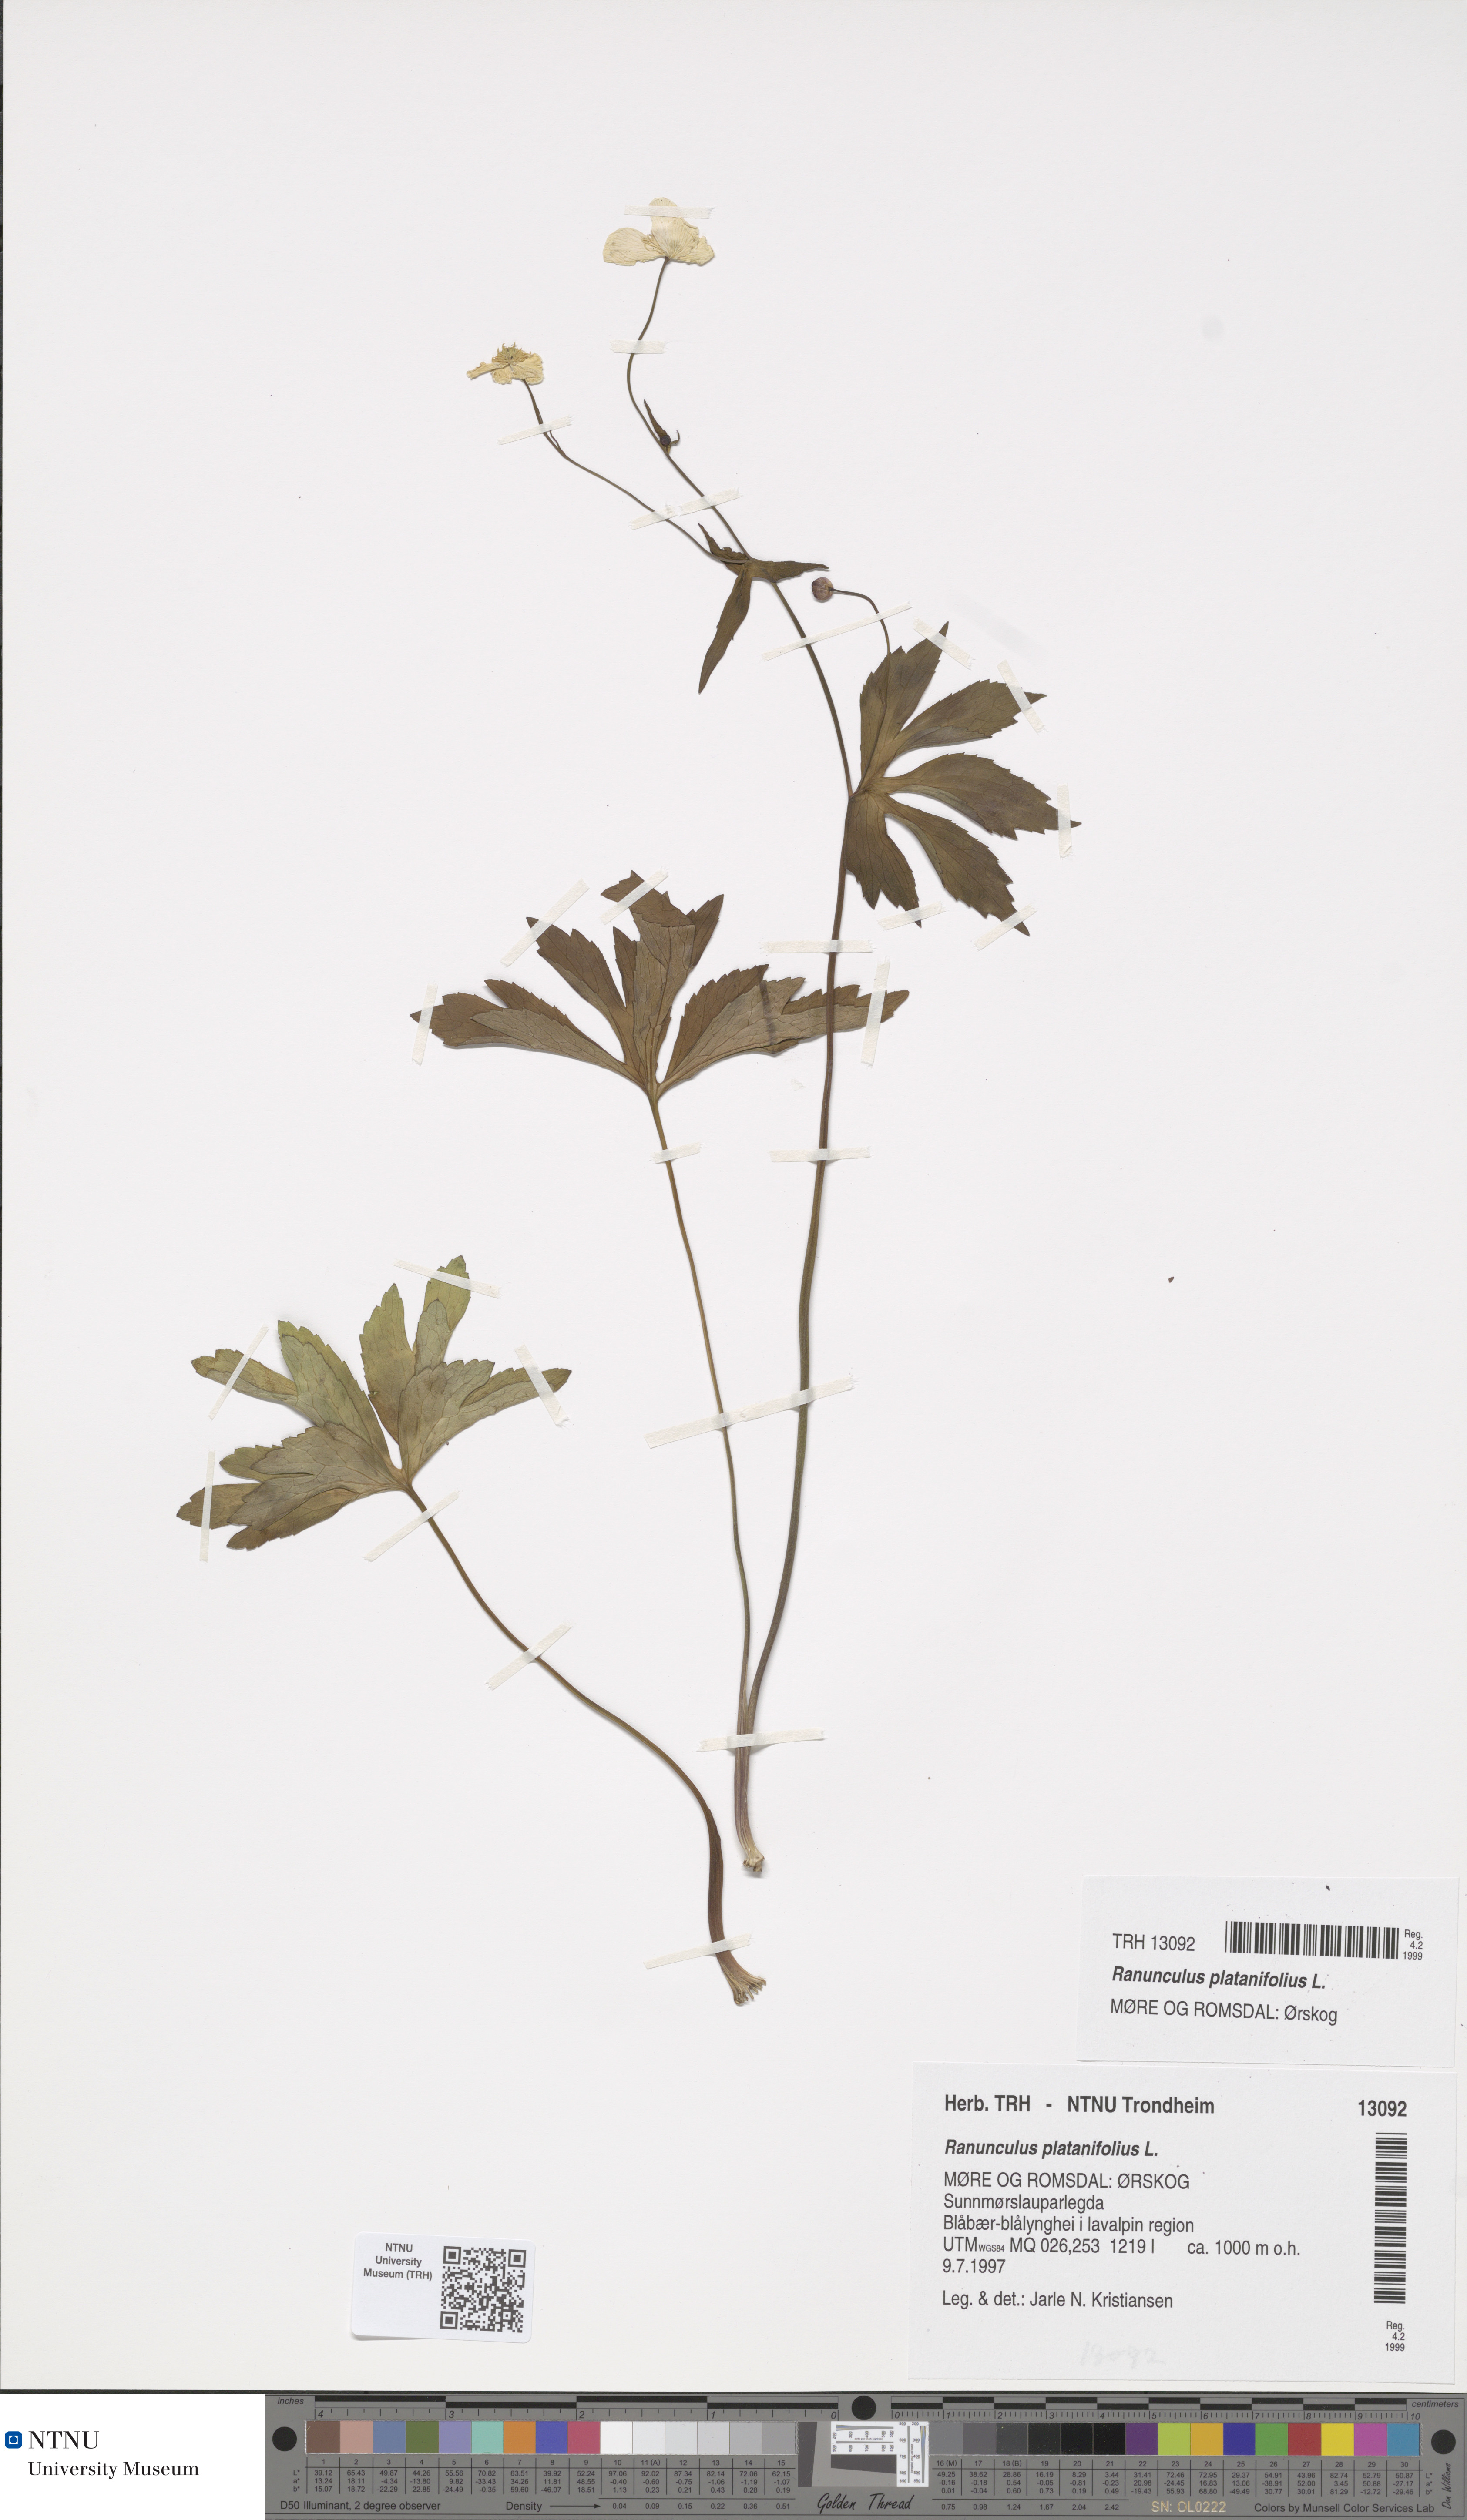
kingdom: Plantae
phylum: Tracheophyta
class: Magnoliopsida
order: Ranunculales
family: Ranunculaceae
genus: Ranunculus
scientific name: Ranunculus platanifolius
